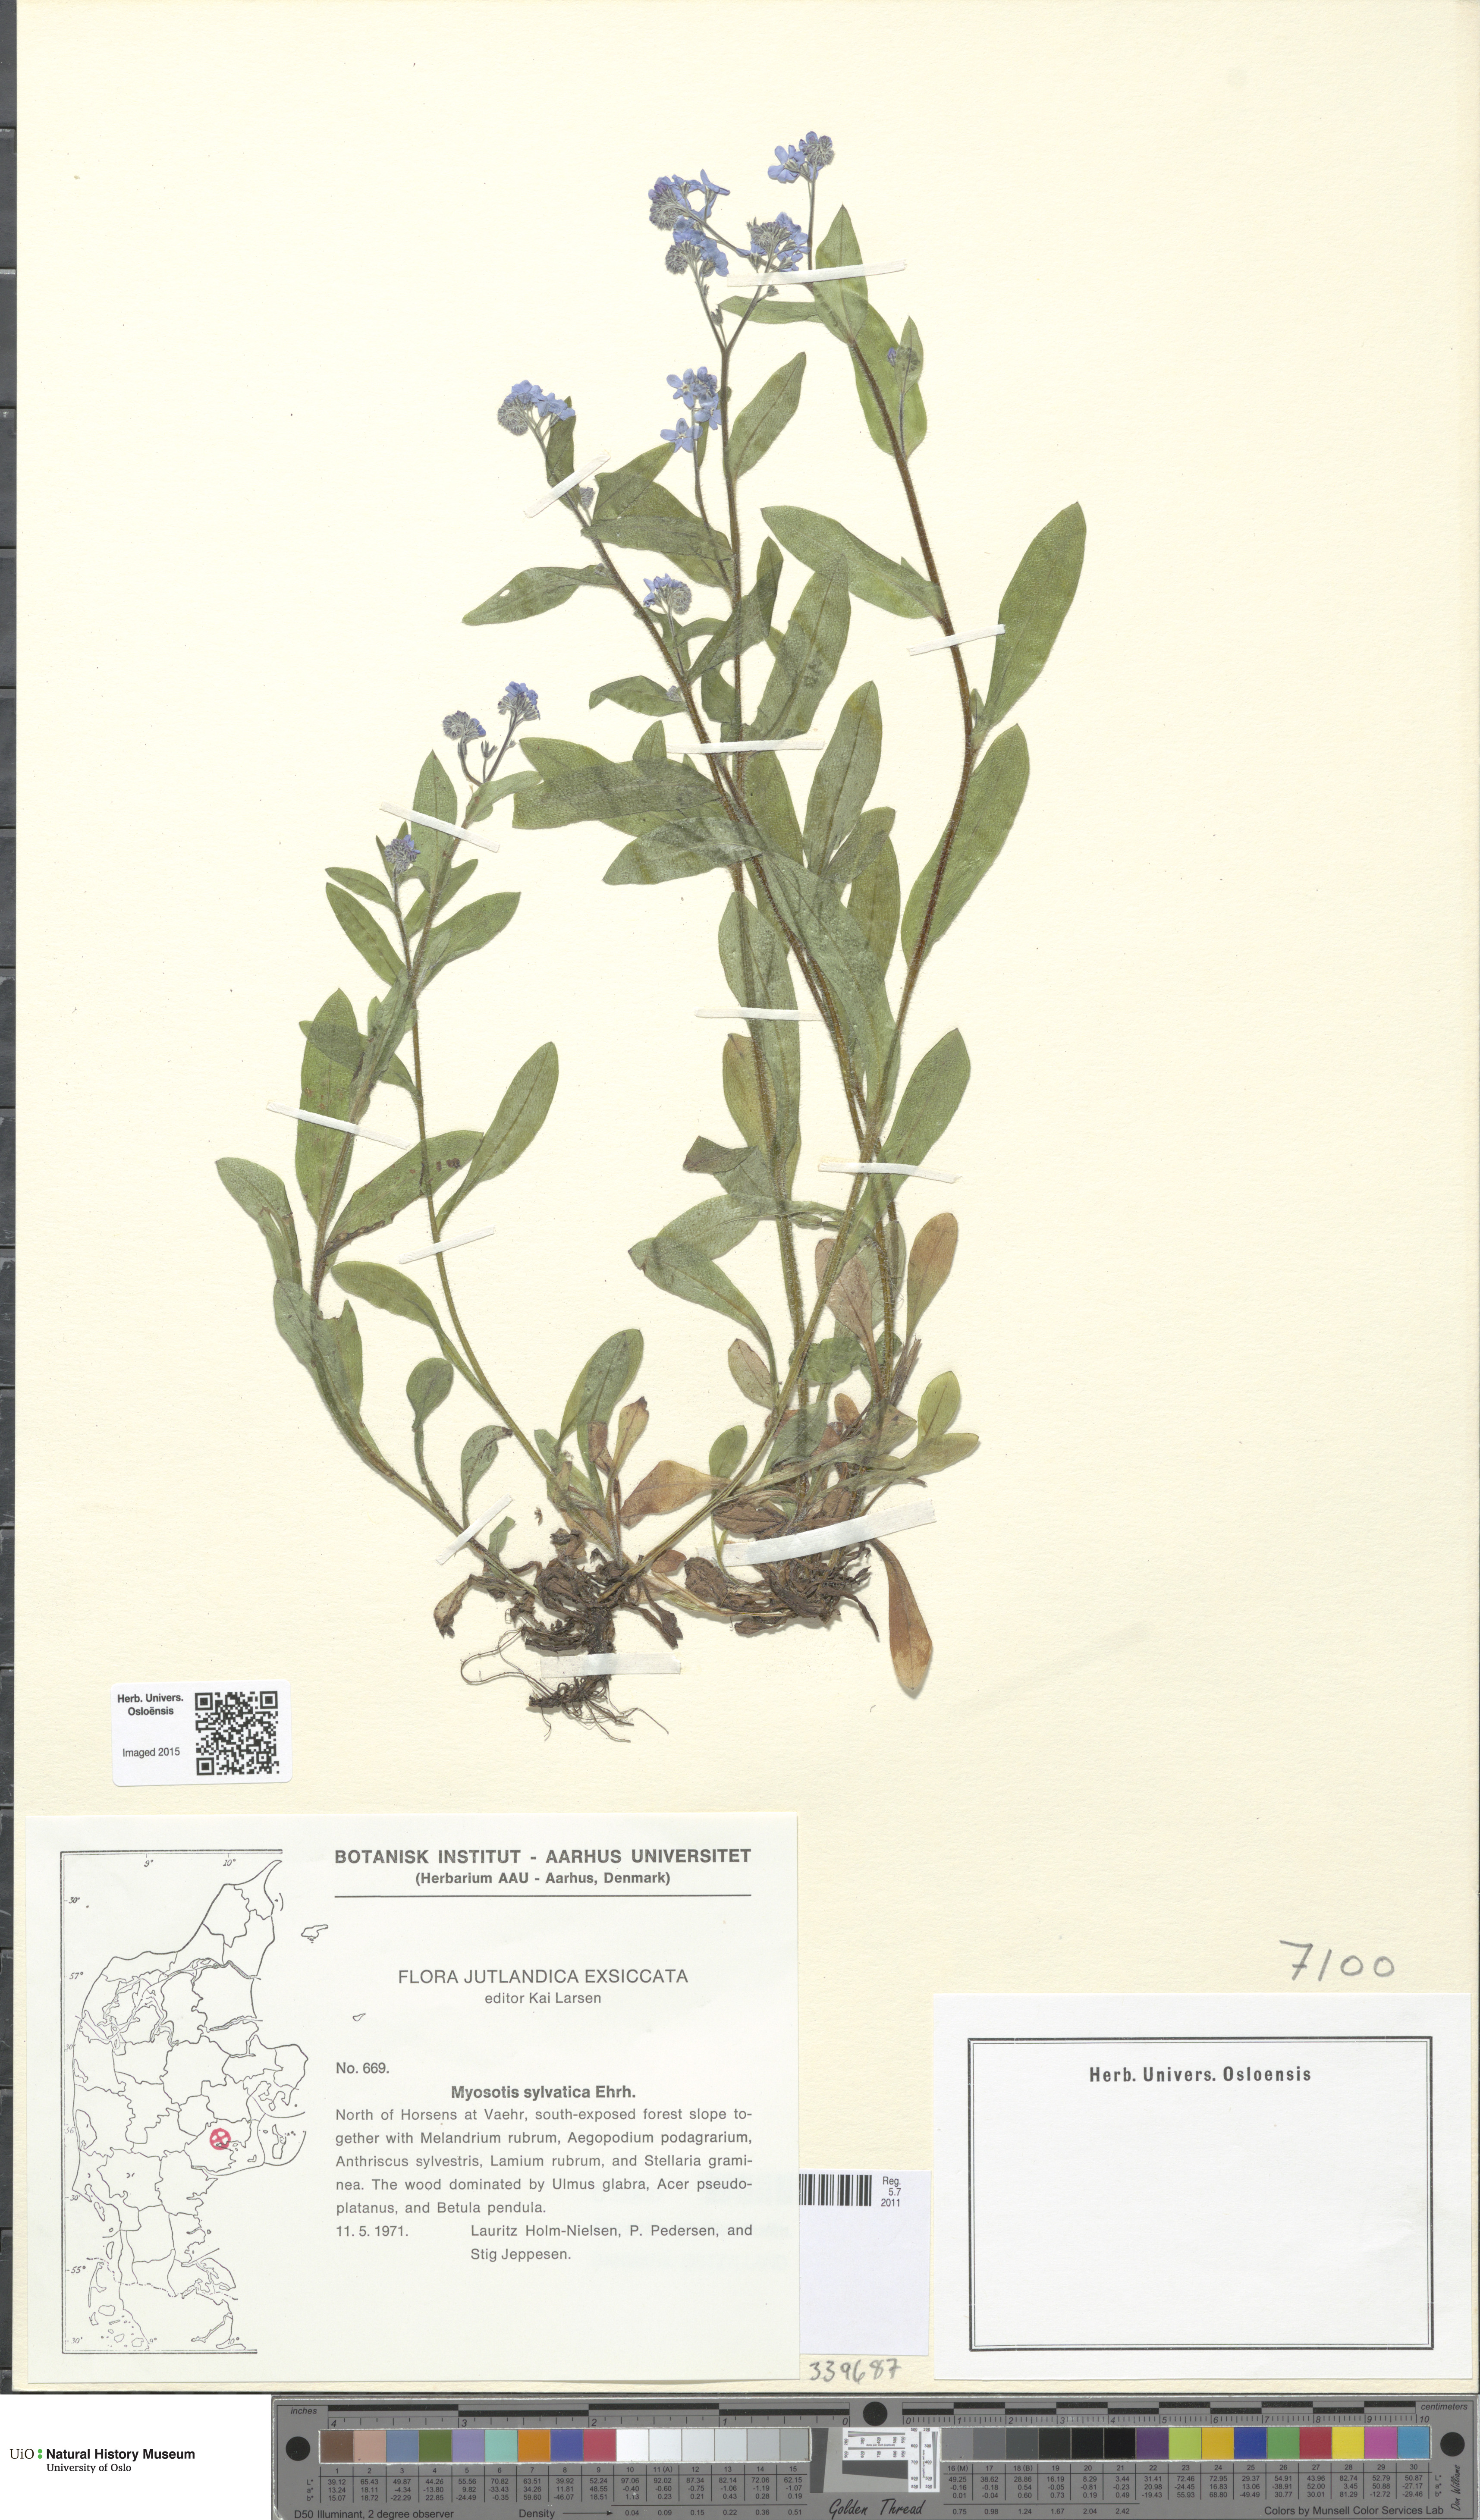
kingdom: Plantae
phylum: Tracheophyta
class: Magnoliopsida
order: Boraginales
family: Boraginaceae
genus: Myosotis
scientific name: Myosotis sylvatica
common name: Wood forget-me-not
